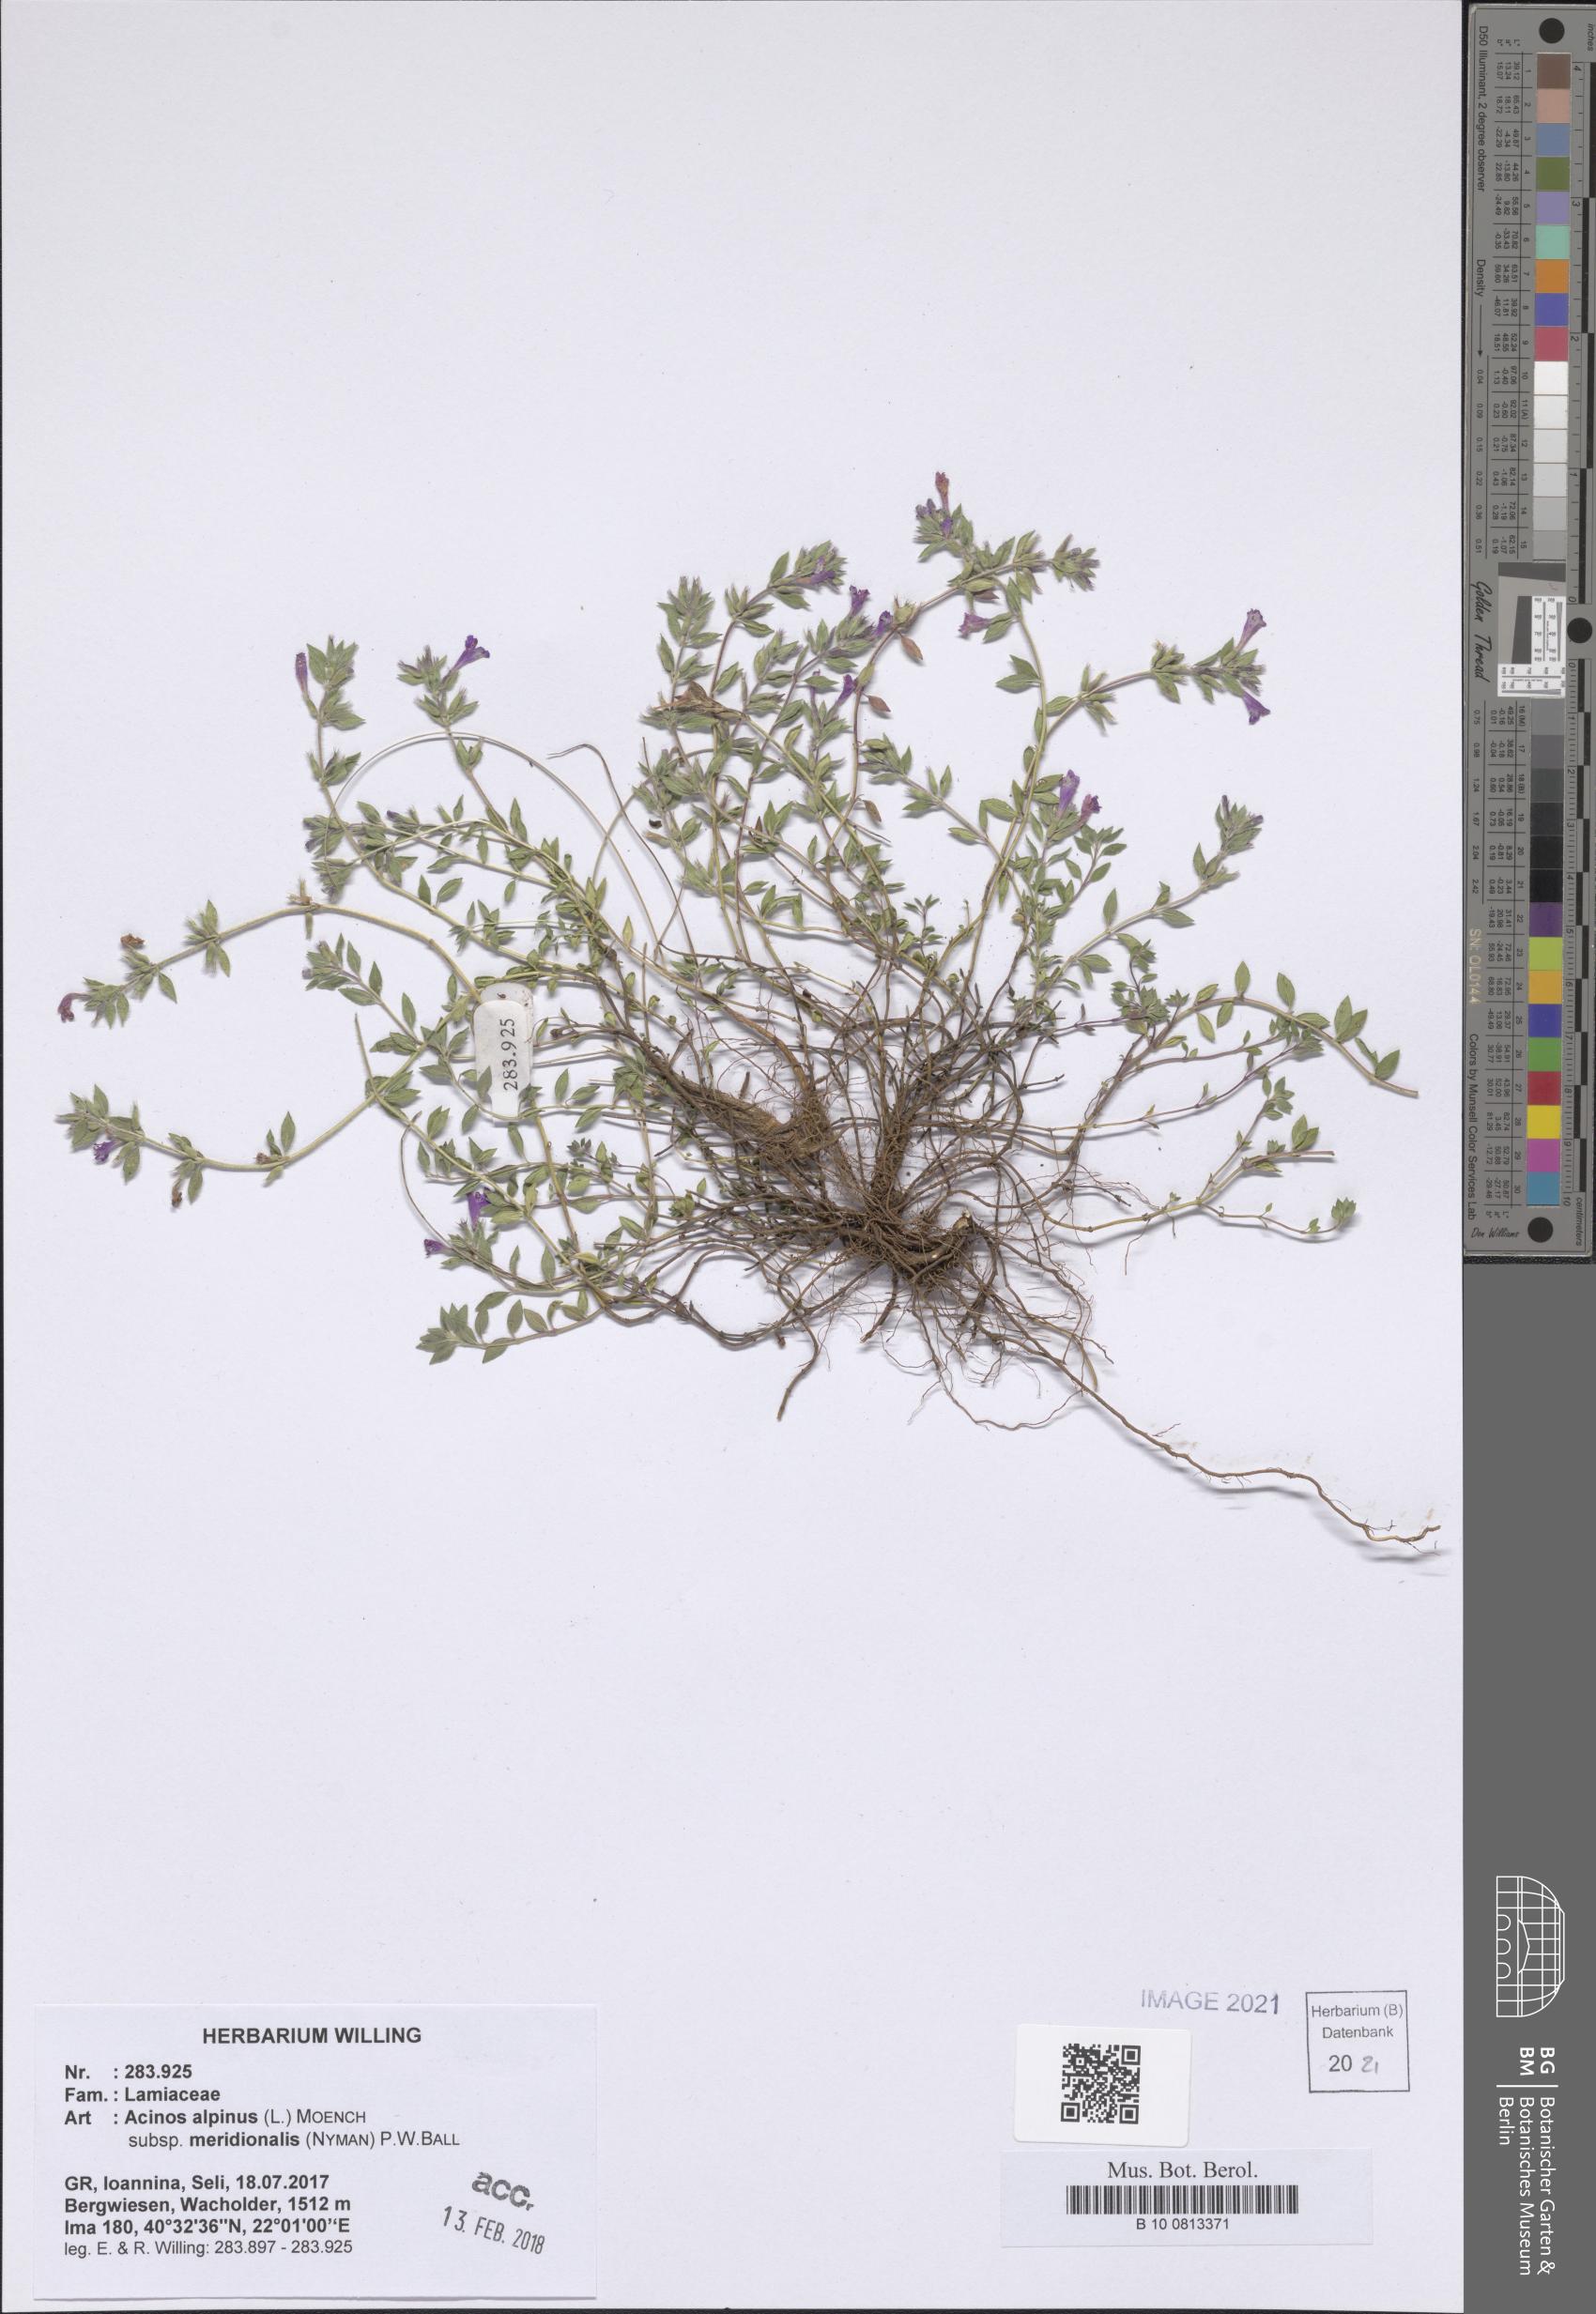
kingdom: Plantae
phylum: Tracheophyta
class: Magnoliopsida
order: Lamiales
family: Lamiaceae
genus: Clinopodium
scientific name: Clinopodium alpinum
